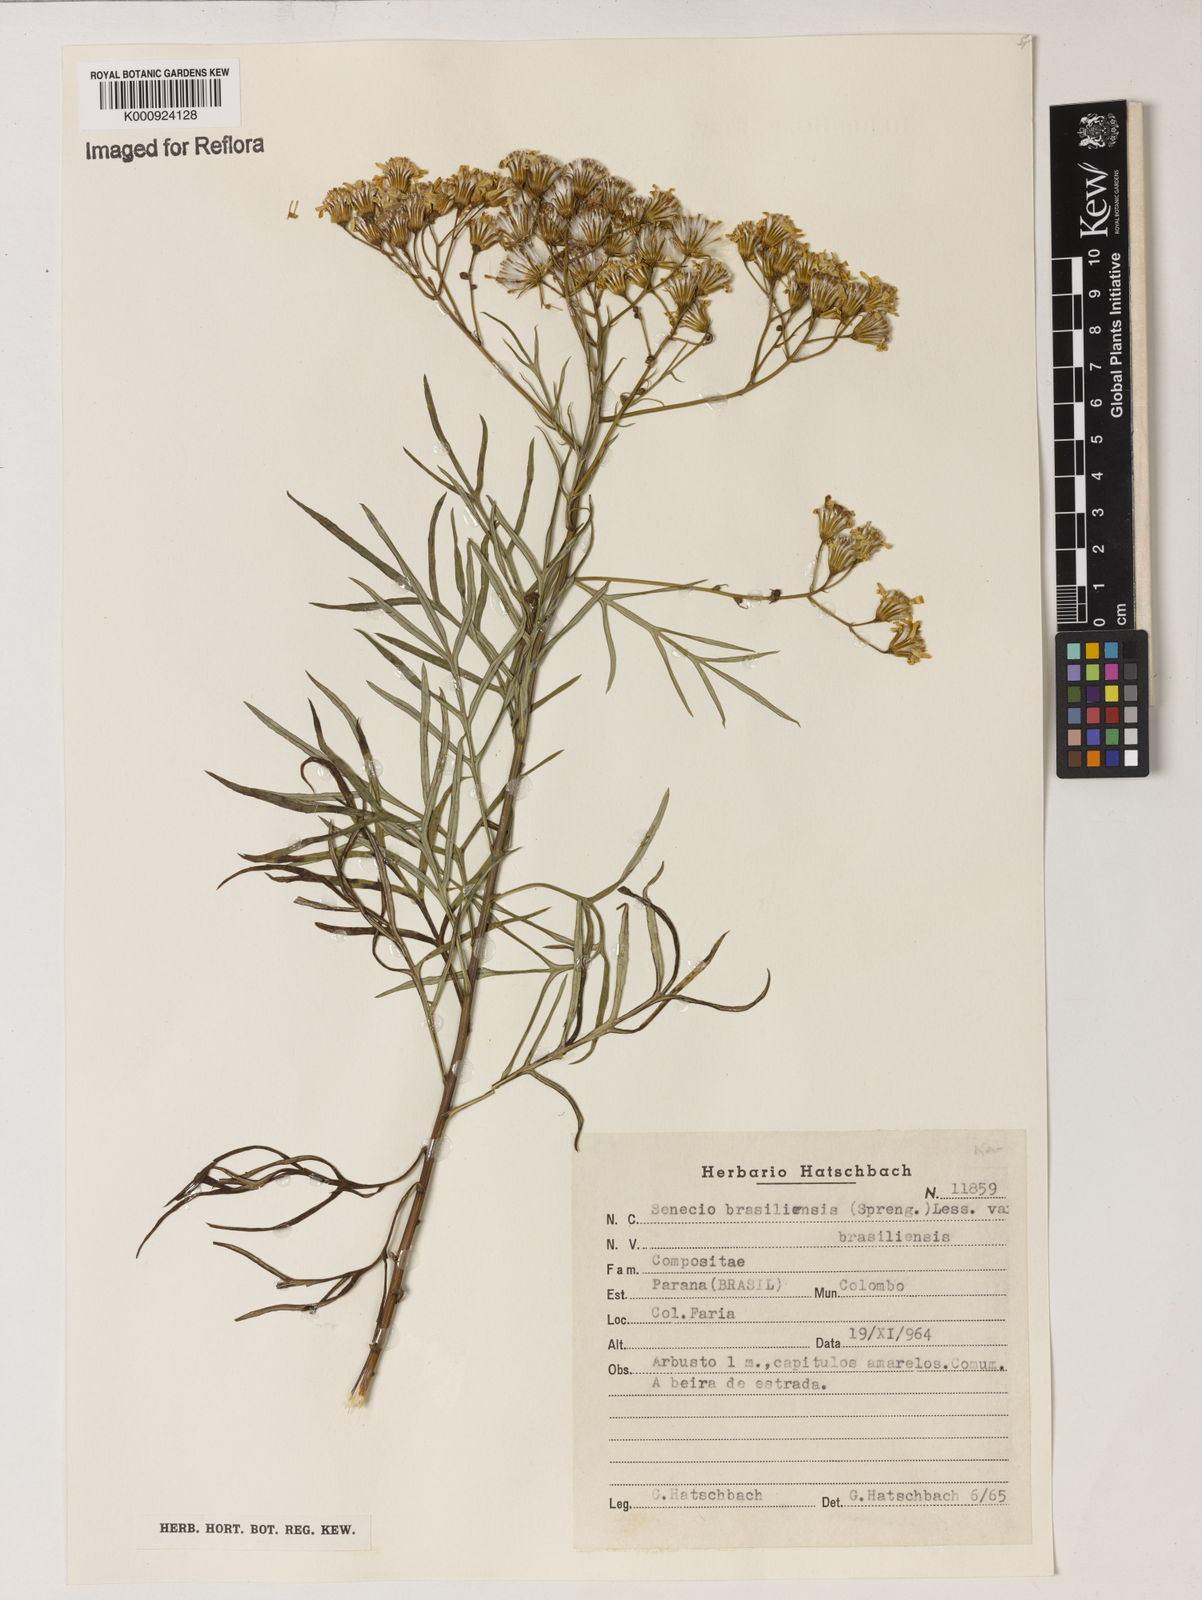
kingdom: Plantae
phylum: Tracheophyta
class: Magnoliopsida
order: Asterales
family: Asteraceae
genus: Senecio
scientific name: Senecio brasiliensis
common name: Hemp-leaf ragwort
